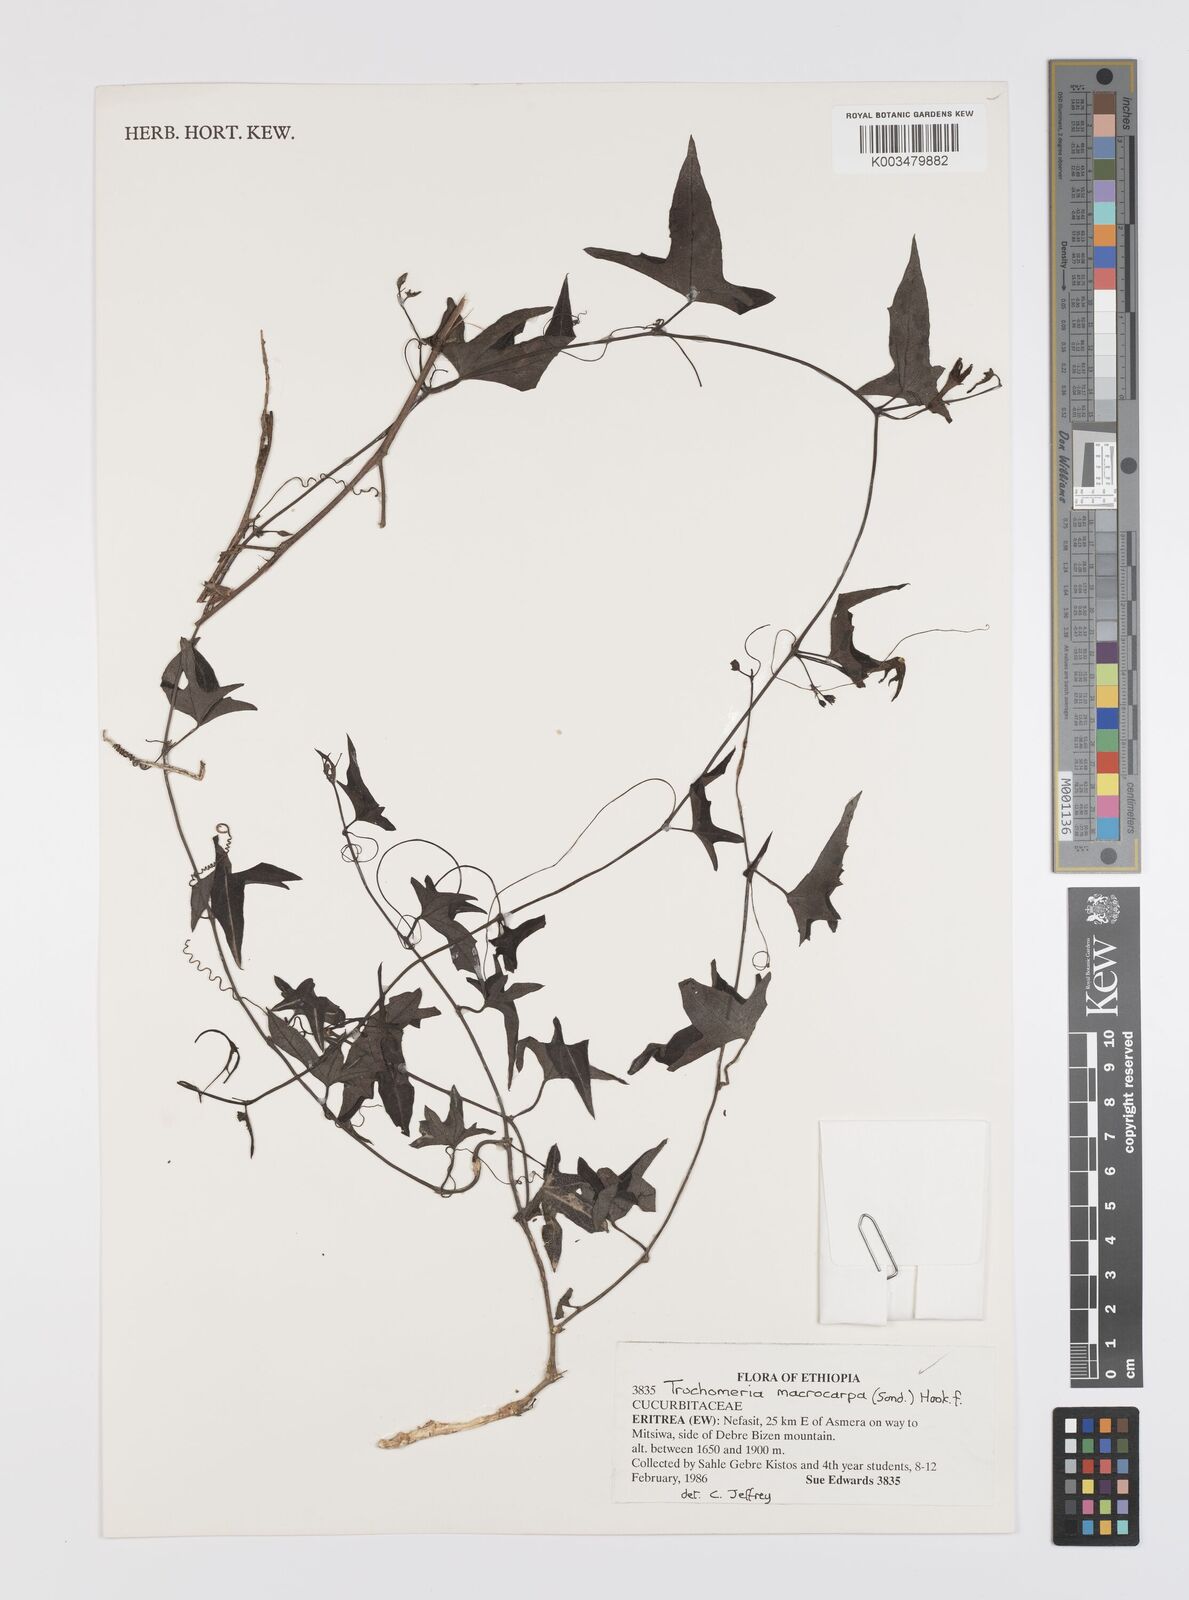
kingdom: Plantae
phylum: Tracheophyta
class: Magnoliopsida
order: Cucurbitales
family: Cucurbitaceae
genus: Trochomeria
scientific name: Trochomeria macrocarpa
